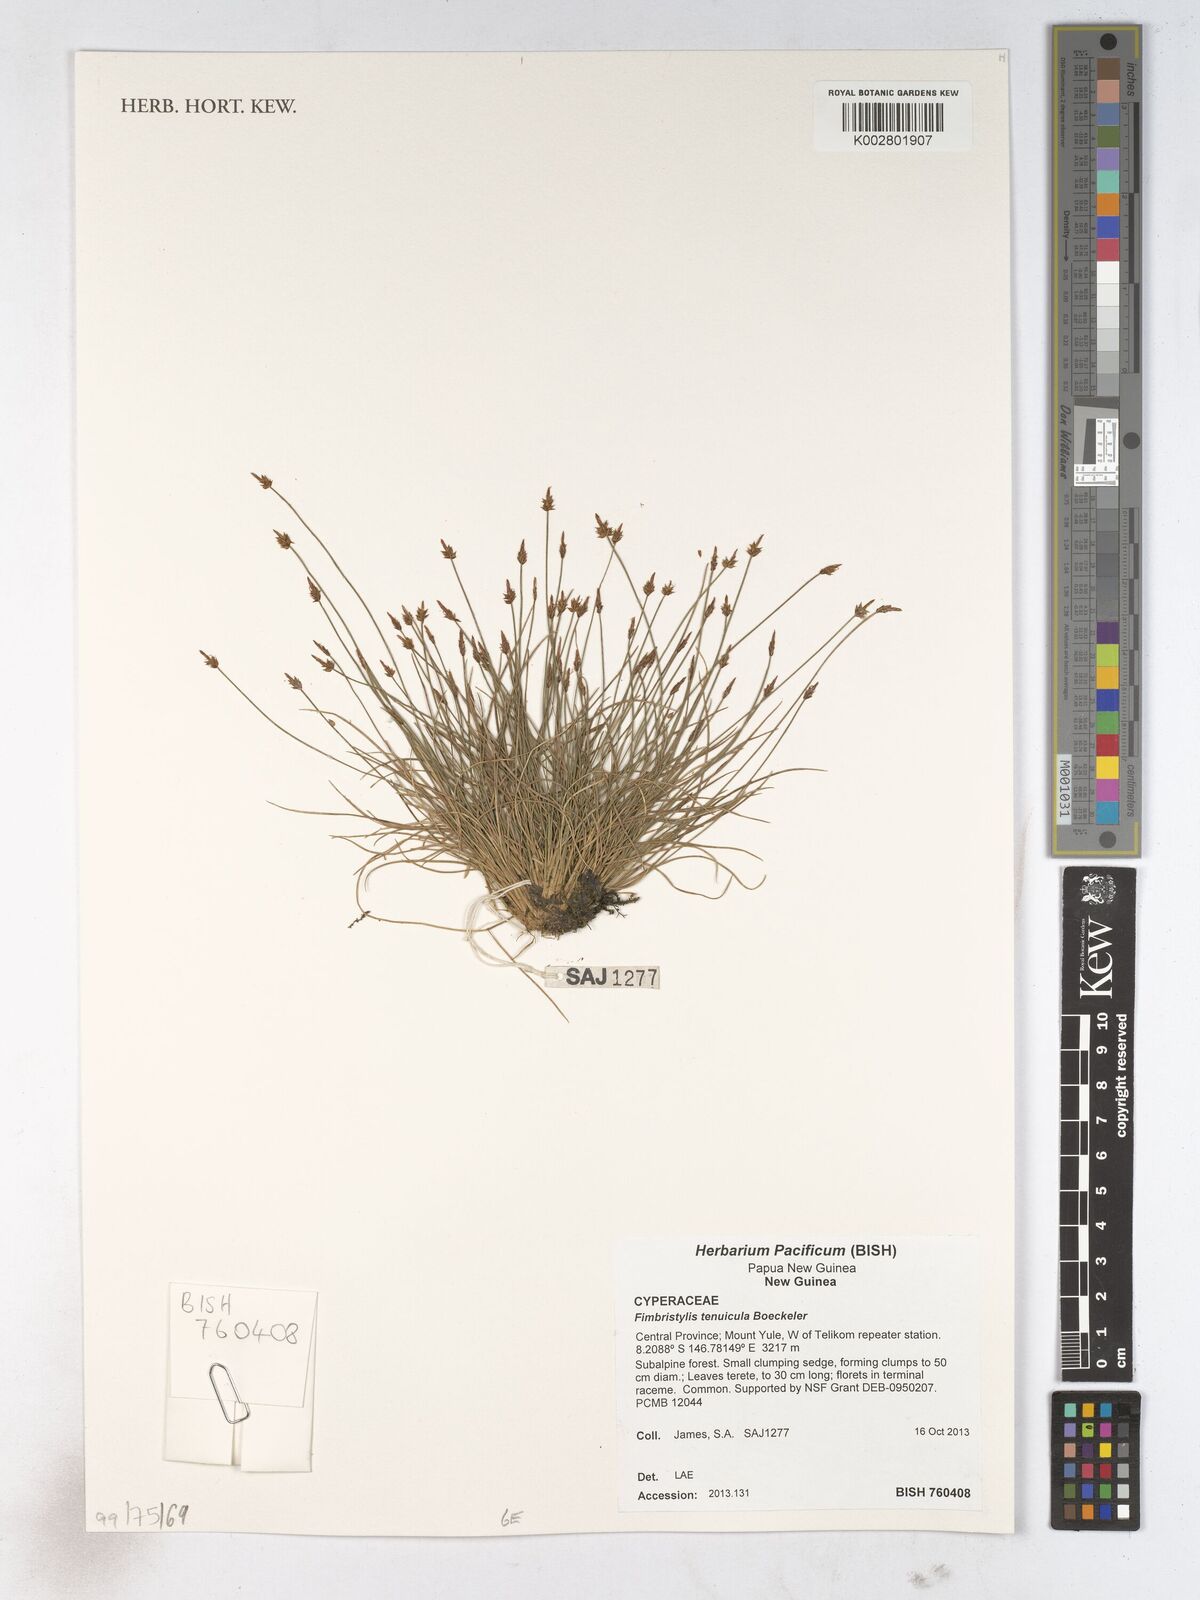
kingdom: Plantae
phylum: Tracheophyta
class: Liliopsida
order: Poales
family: Cyperaceae
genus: Fimbristylis
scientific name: Fimbristylis tenuicula
